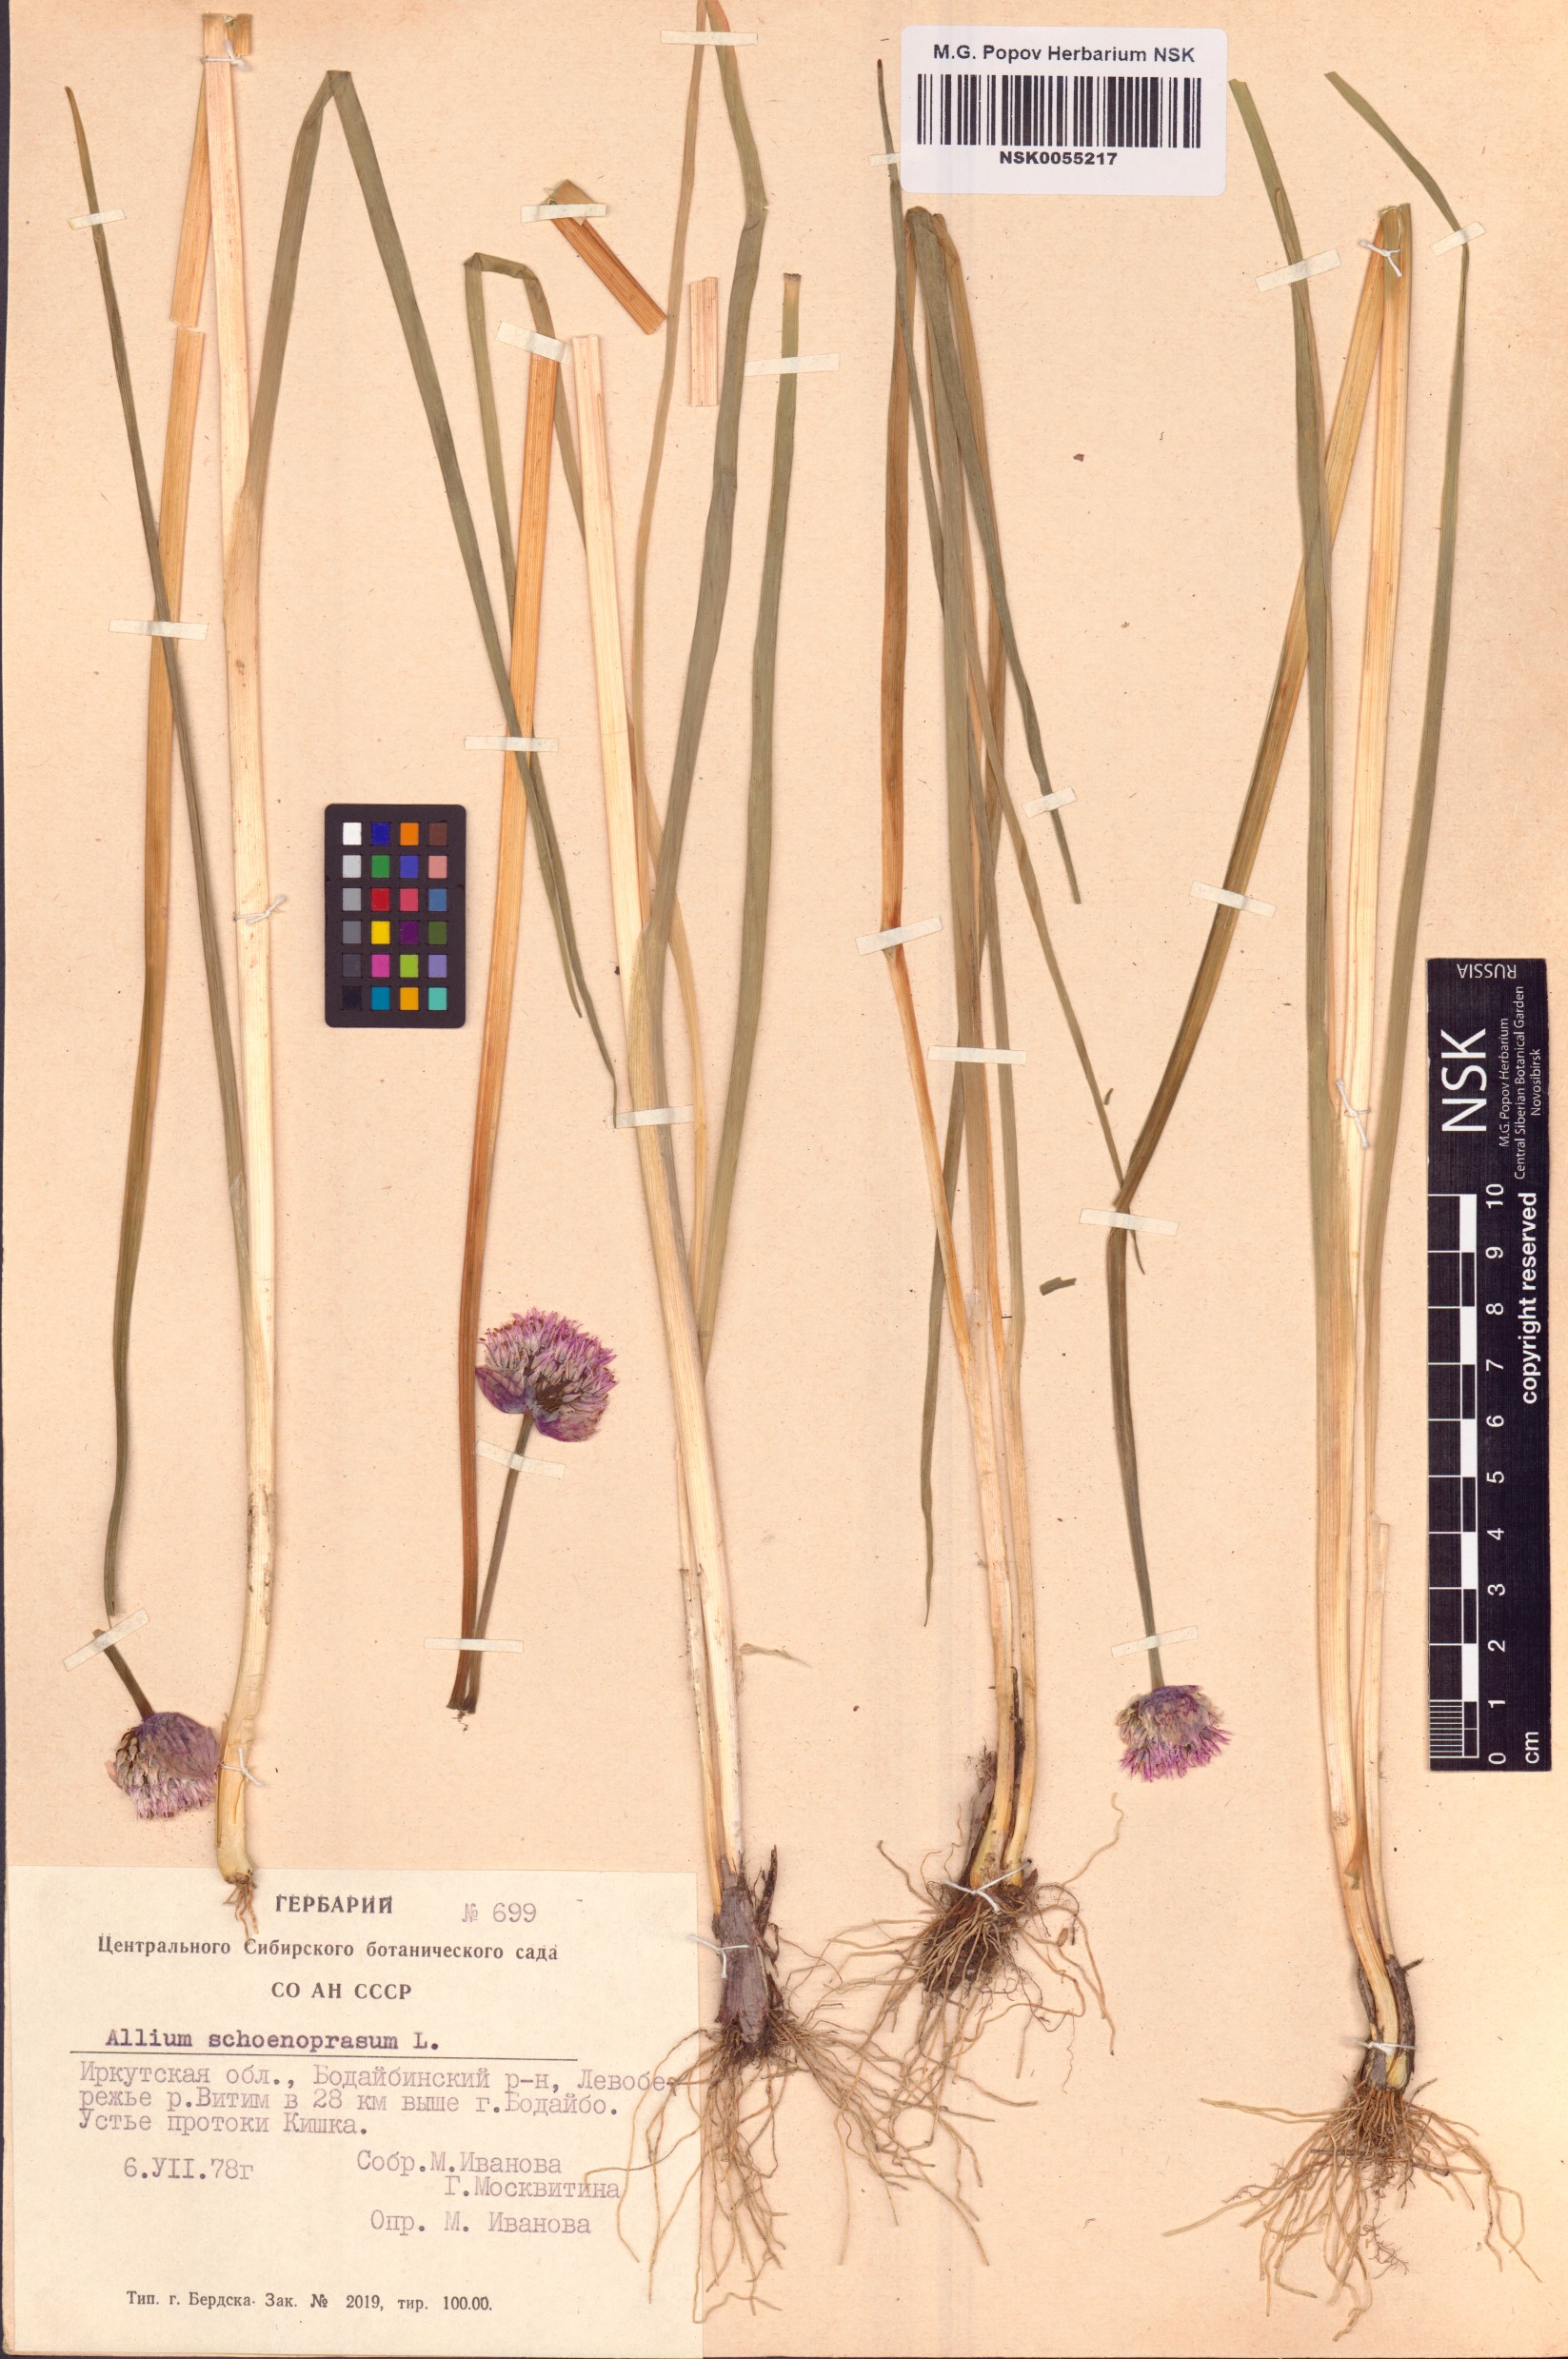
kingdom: Plantae
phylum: Tracheophyta
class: Liliopsida
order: Asparagales
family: Amaryllidaceae
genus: Allium
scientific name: Allium schoenoprasum
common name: Chives
